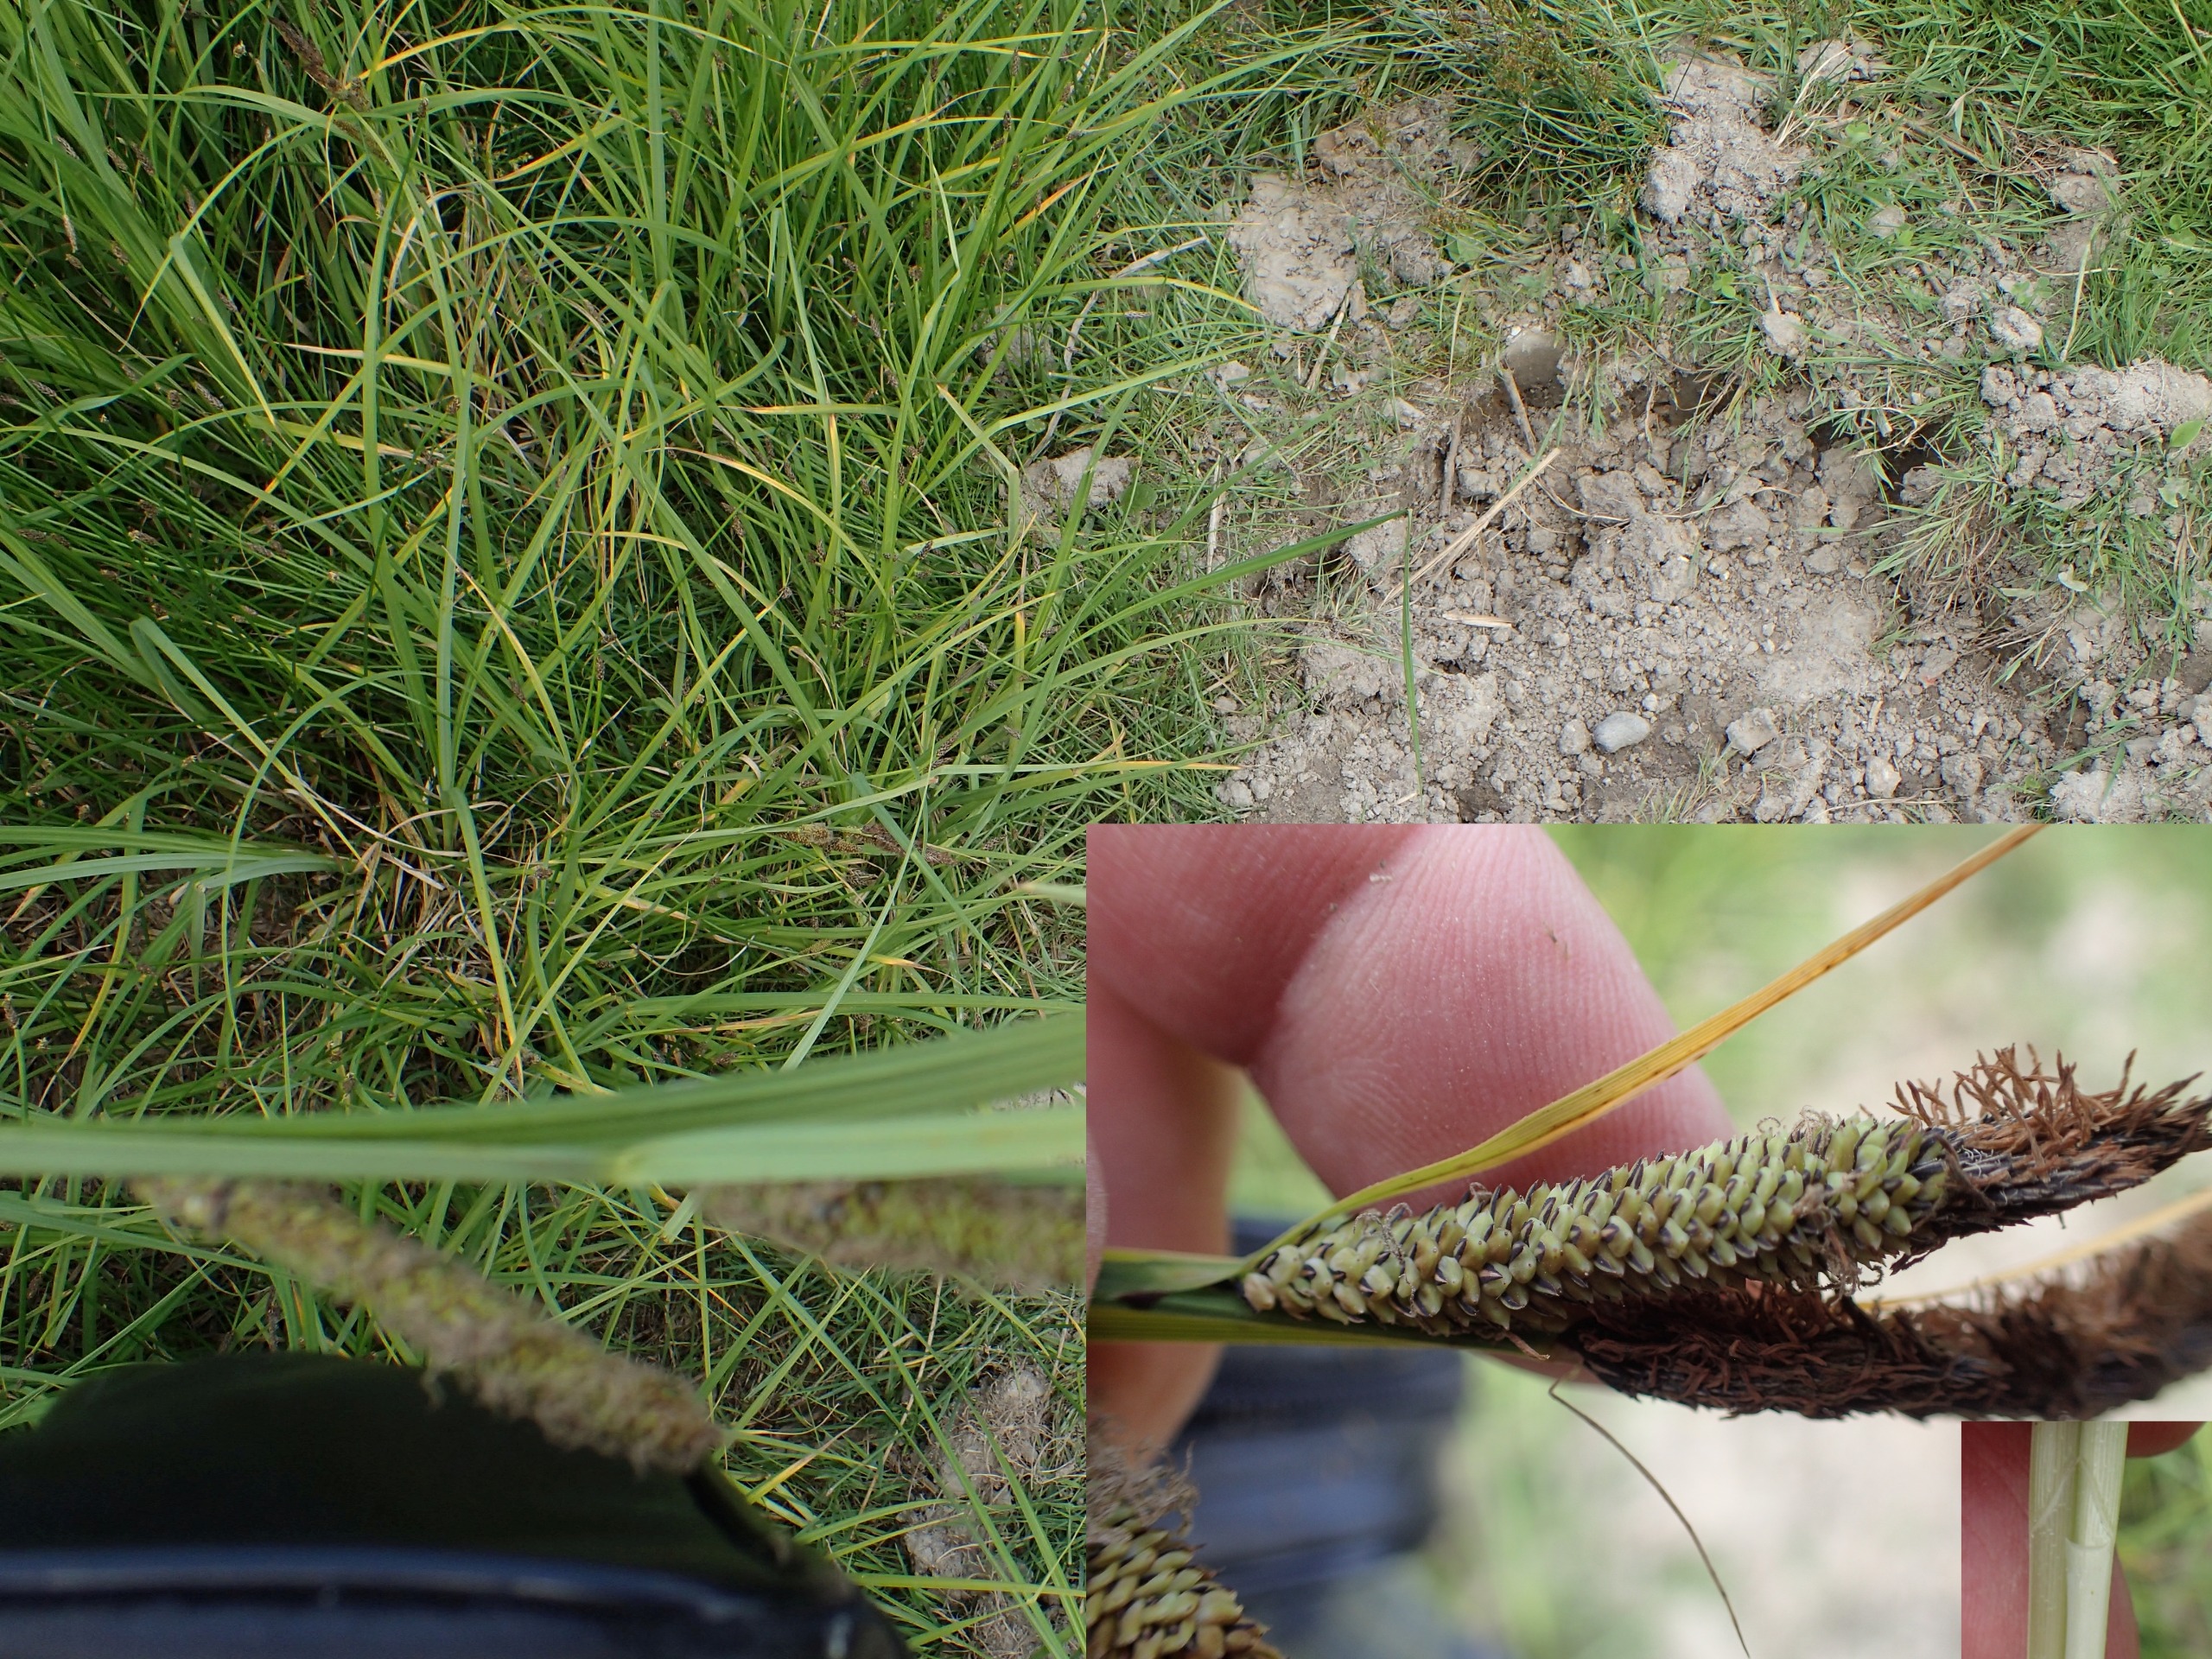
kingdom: Plantae
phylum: Tracheophyta
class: Liliopsida
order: Poales
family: Cyperaceae
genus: Carex
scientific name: Carex acuta
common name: Nikkende star
